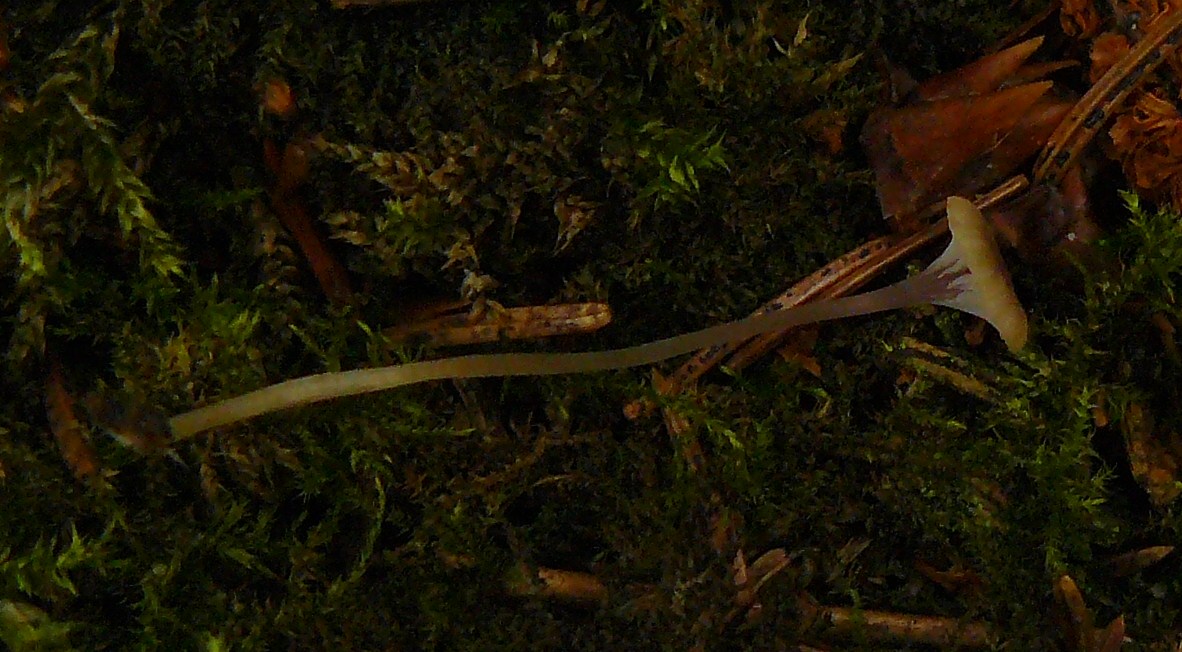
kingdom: Fungi
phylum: Basidiomycota
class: Agaricomycetes
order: Hymenochaetales
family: Rickenellaceae
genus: Rickenella
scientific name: Rickenella swartzii
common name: finstokket mosnavlehat
